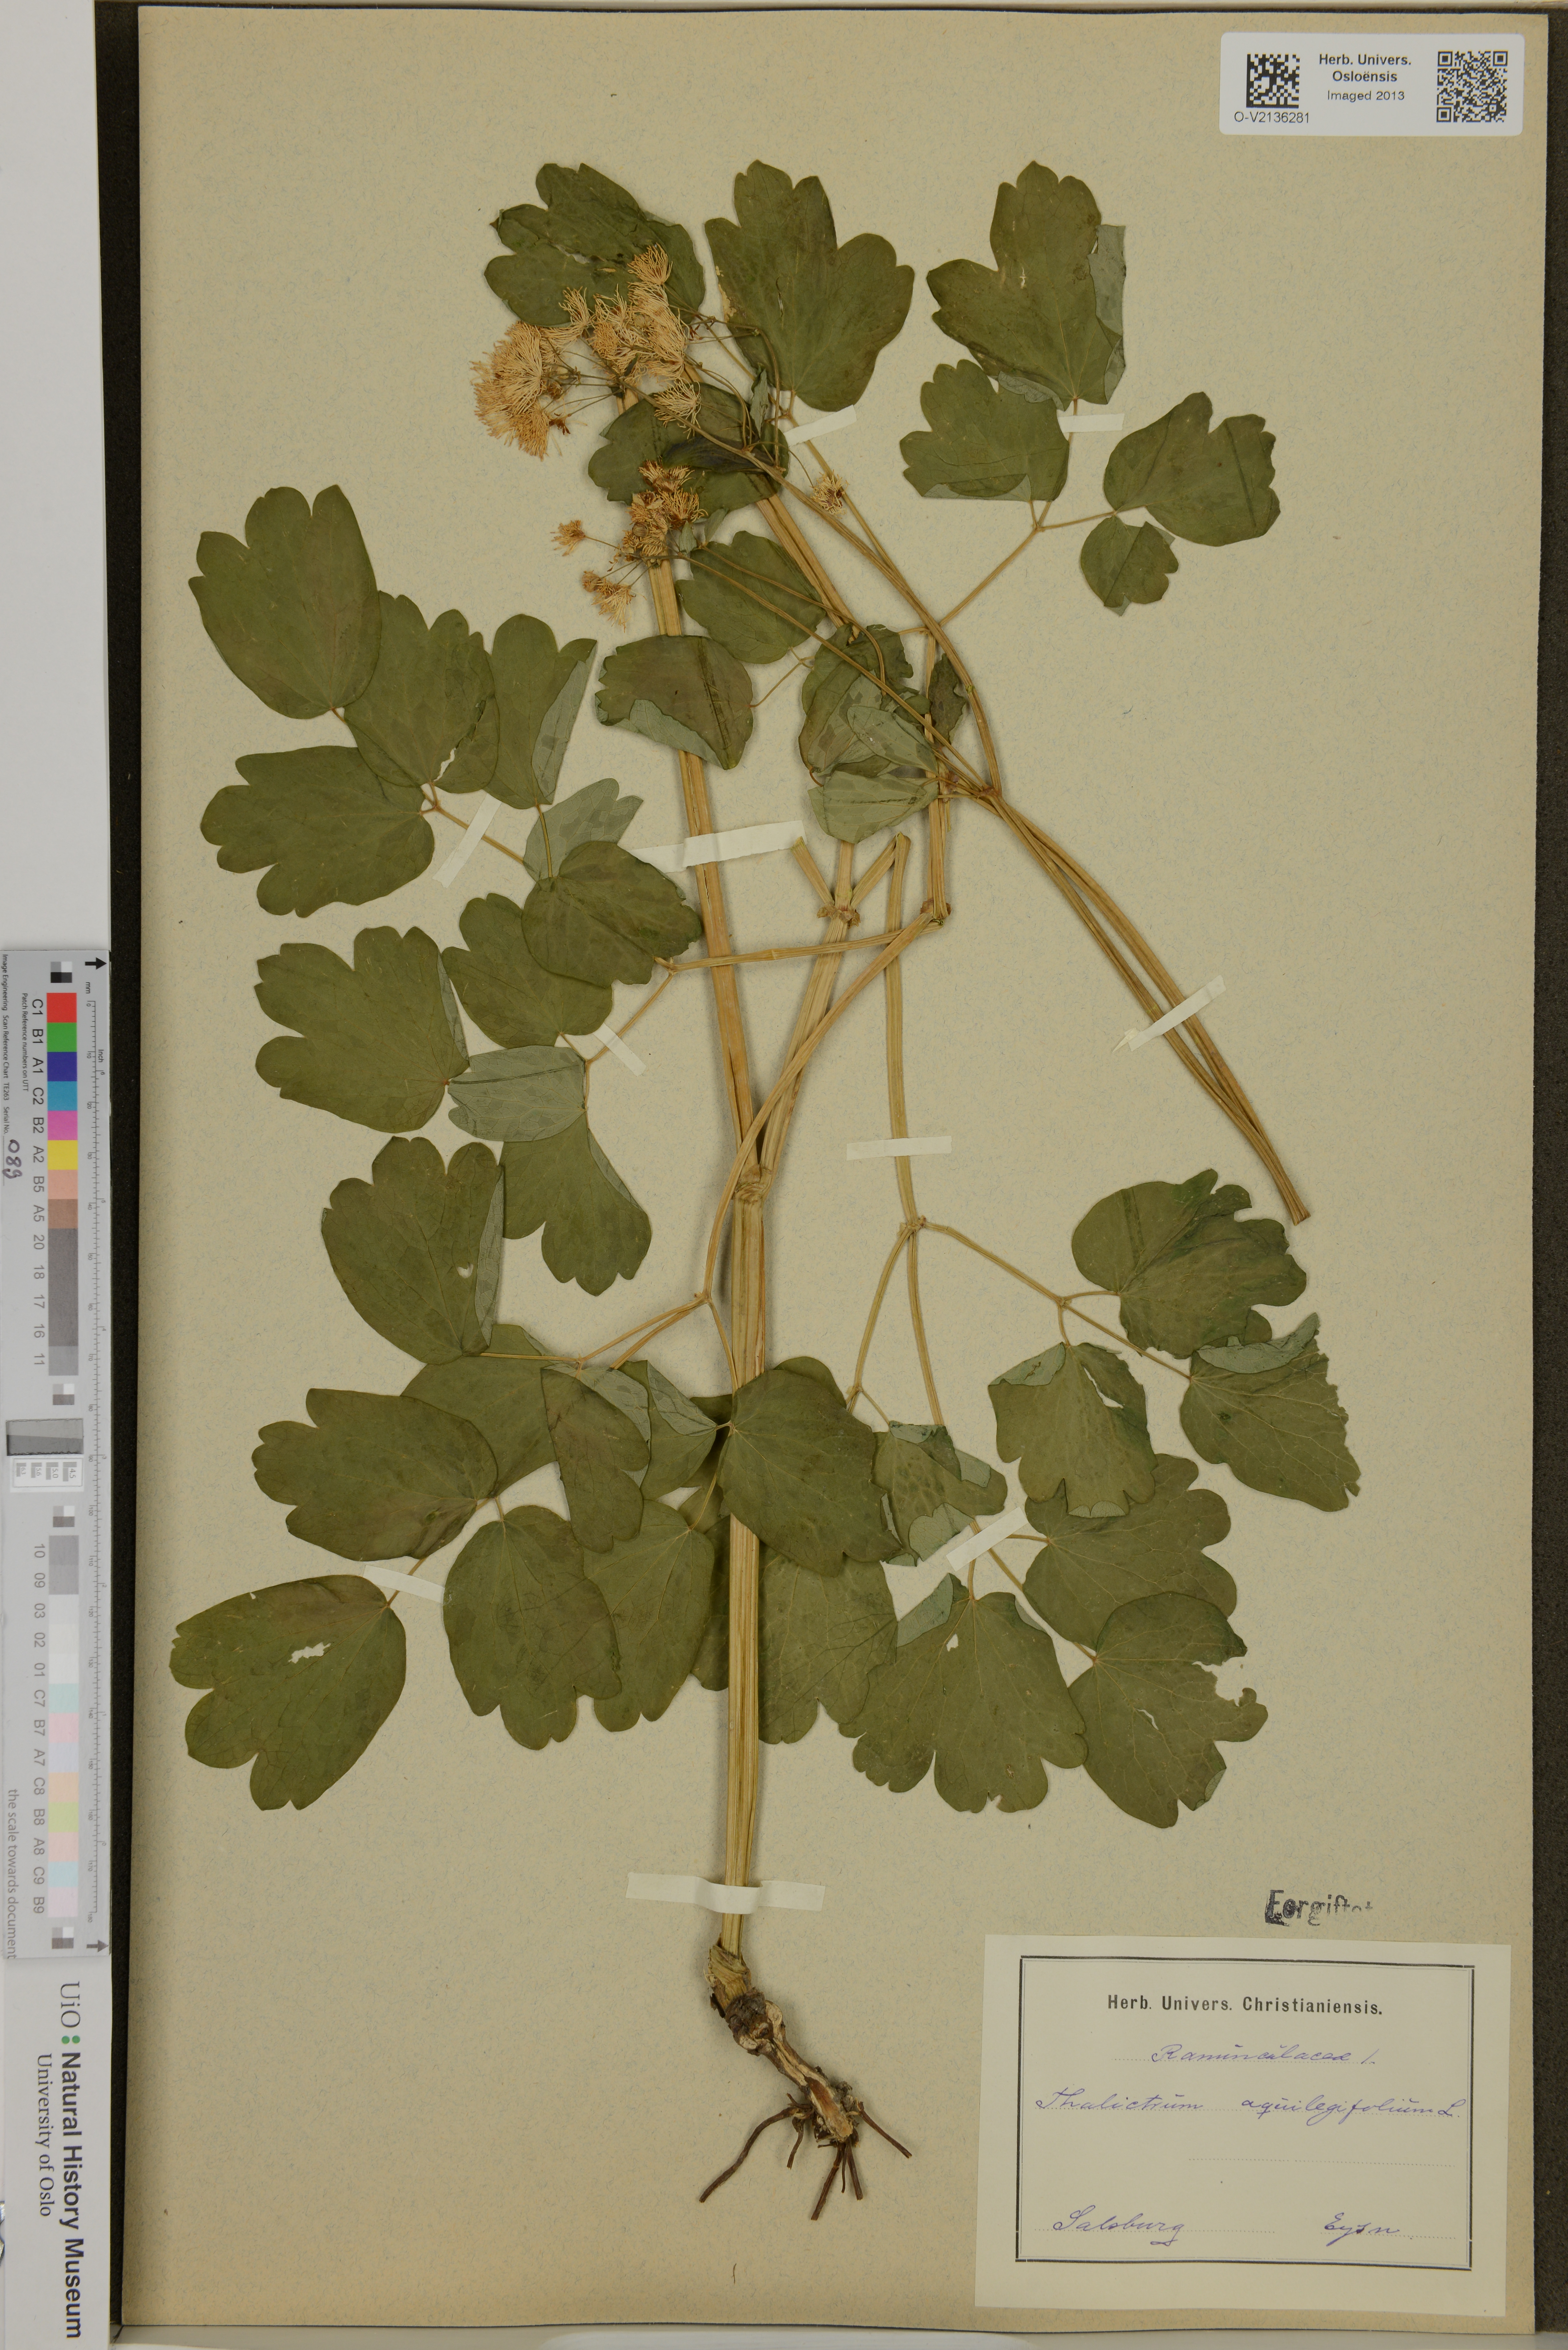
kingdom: Plantae
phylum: Tracheophyta
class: Magnoliopsida
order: Ranunculales
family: Ranunculaceae
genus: Thalictrum
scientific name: Thalictrum aquilegiifolium
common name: French meadow-rue
